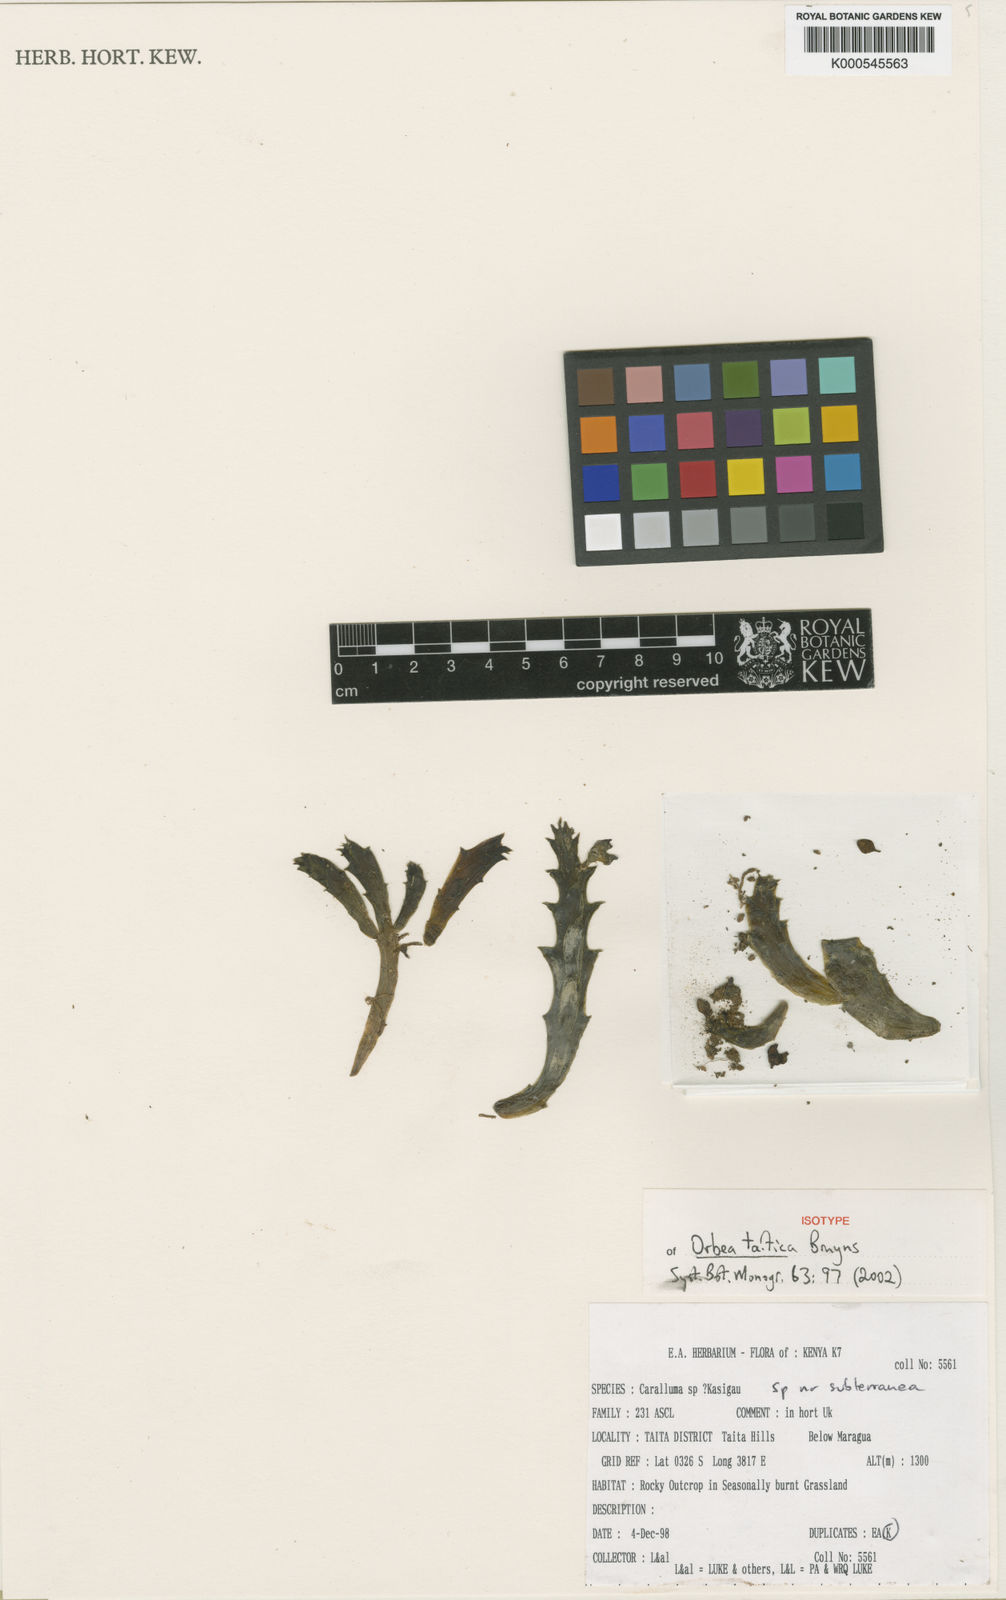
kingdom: Plantae
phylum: Tracheophyta
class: Magnoliopsida
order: Gentianales
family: Apocynaceae
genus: Ceropegia
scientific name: Ceropegia taitica
